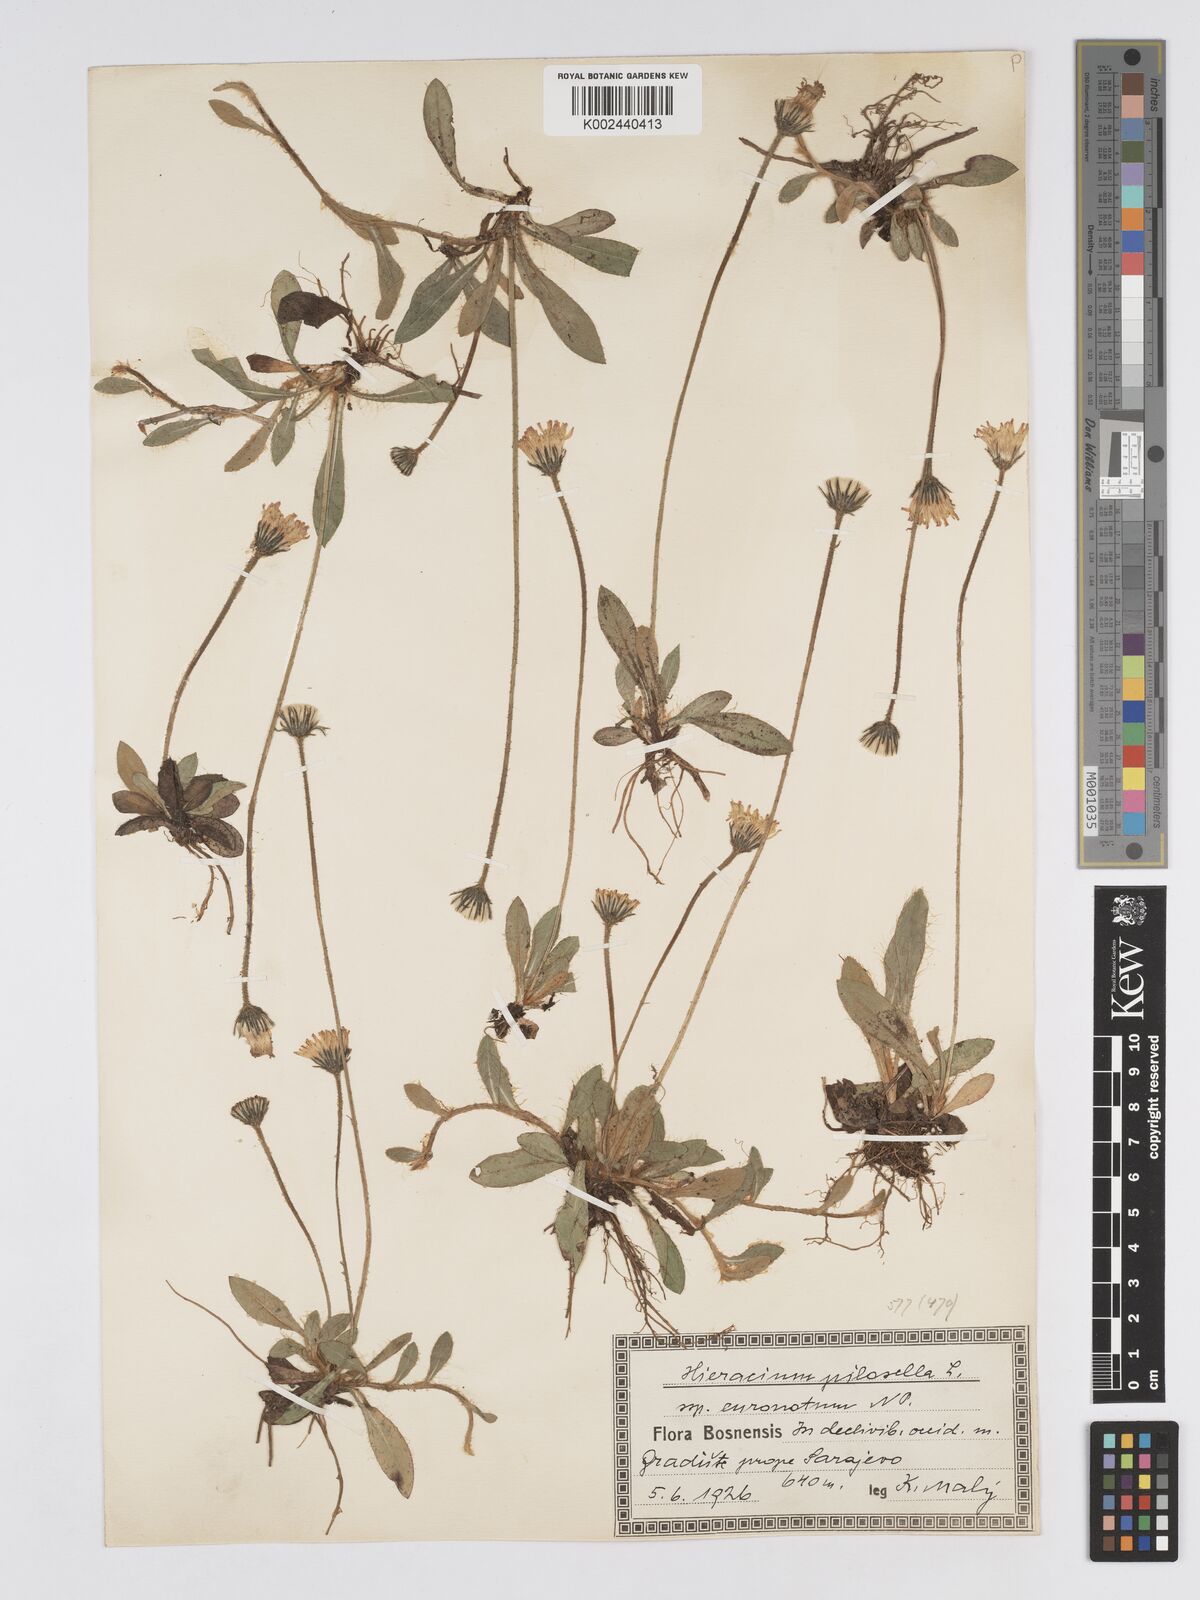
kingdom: Plantae
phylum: Tracheophyta
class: Magnoliopsida
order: Asterales
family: Asteraceae
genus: Pilosella
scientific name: Pilosella officinarum
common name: Mouse-ear hawkweed
